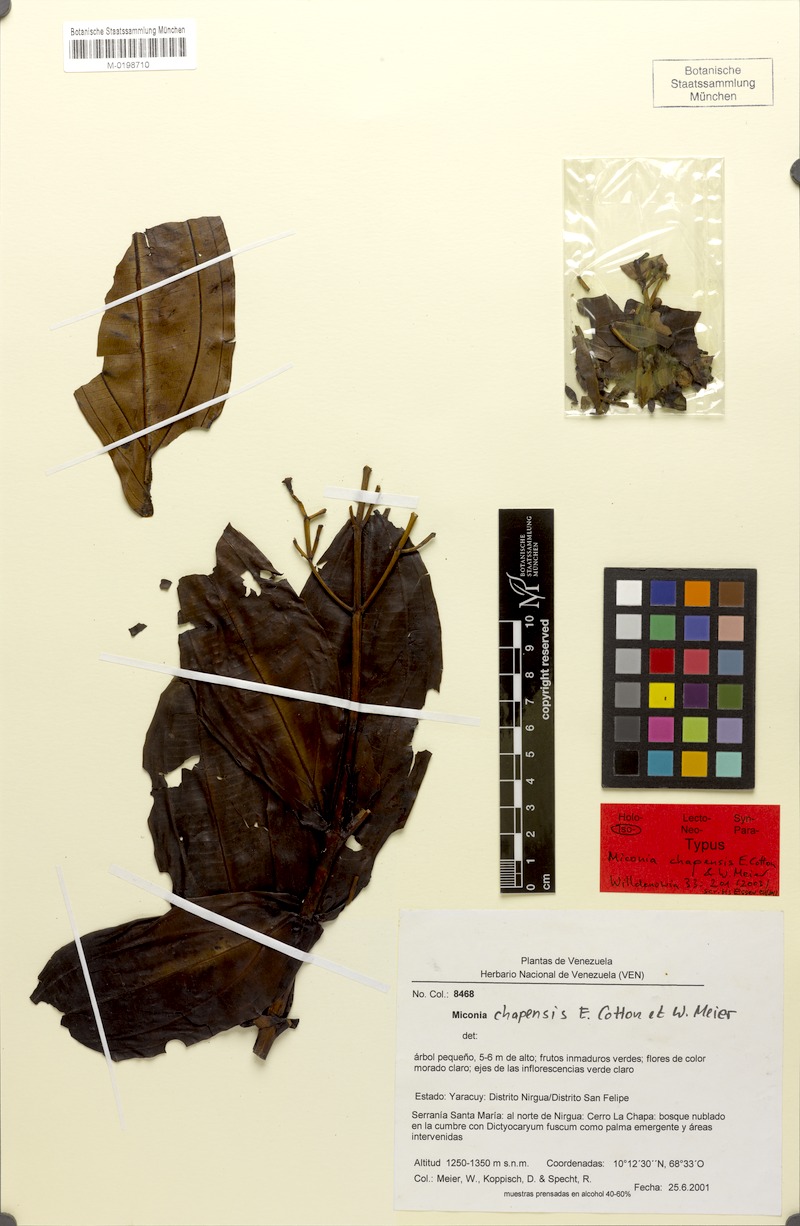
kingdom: Plantae
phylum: Tracheophyta
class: Magnoliopsida
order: Myrtales
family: Melastomataceae
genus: Miconia
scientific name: Miconia chapensis
